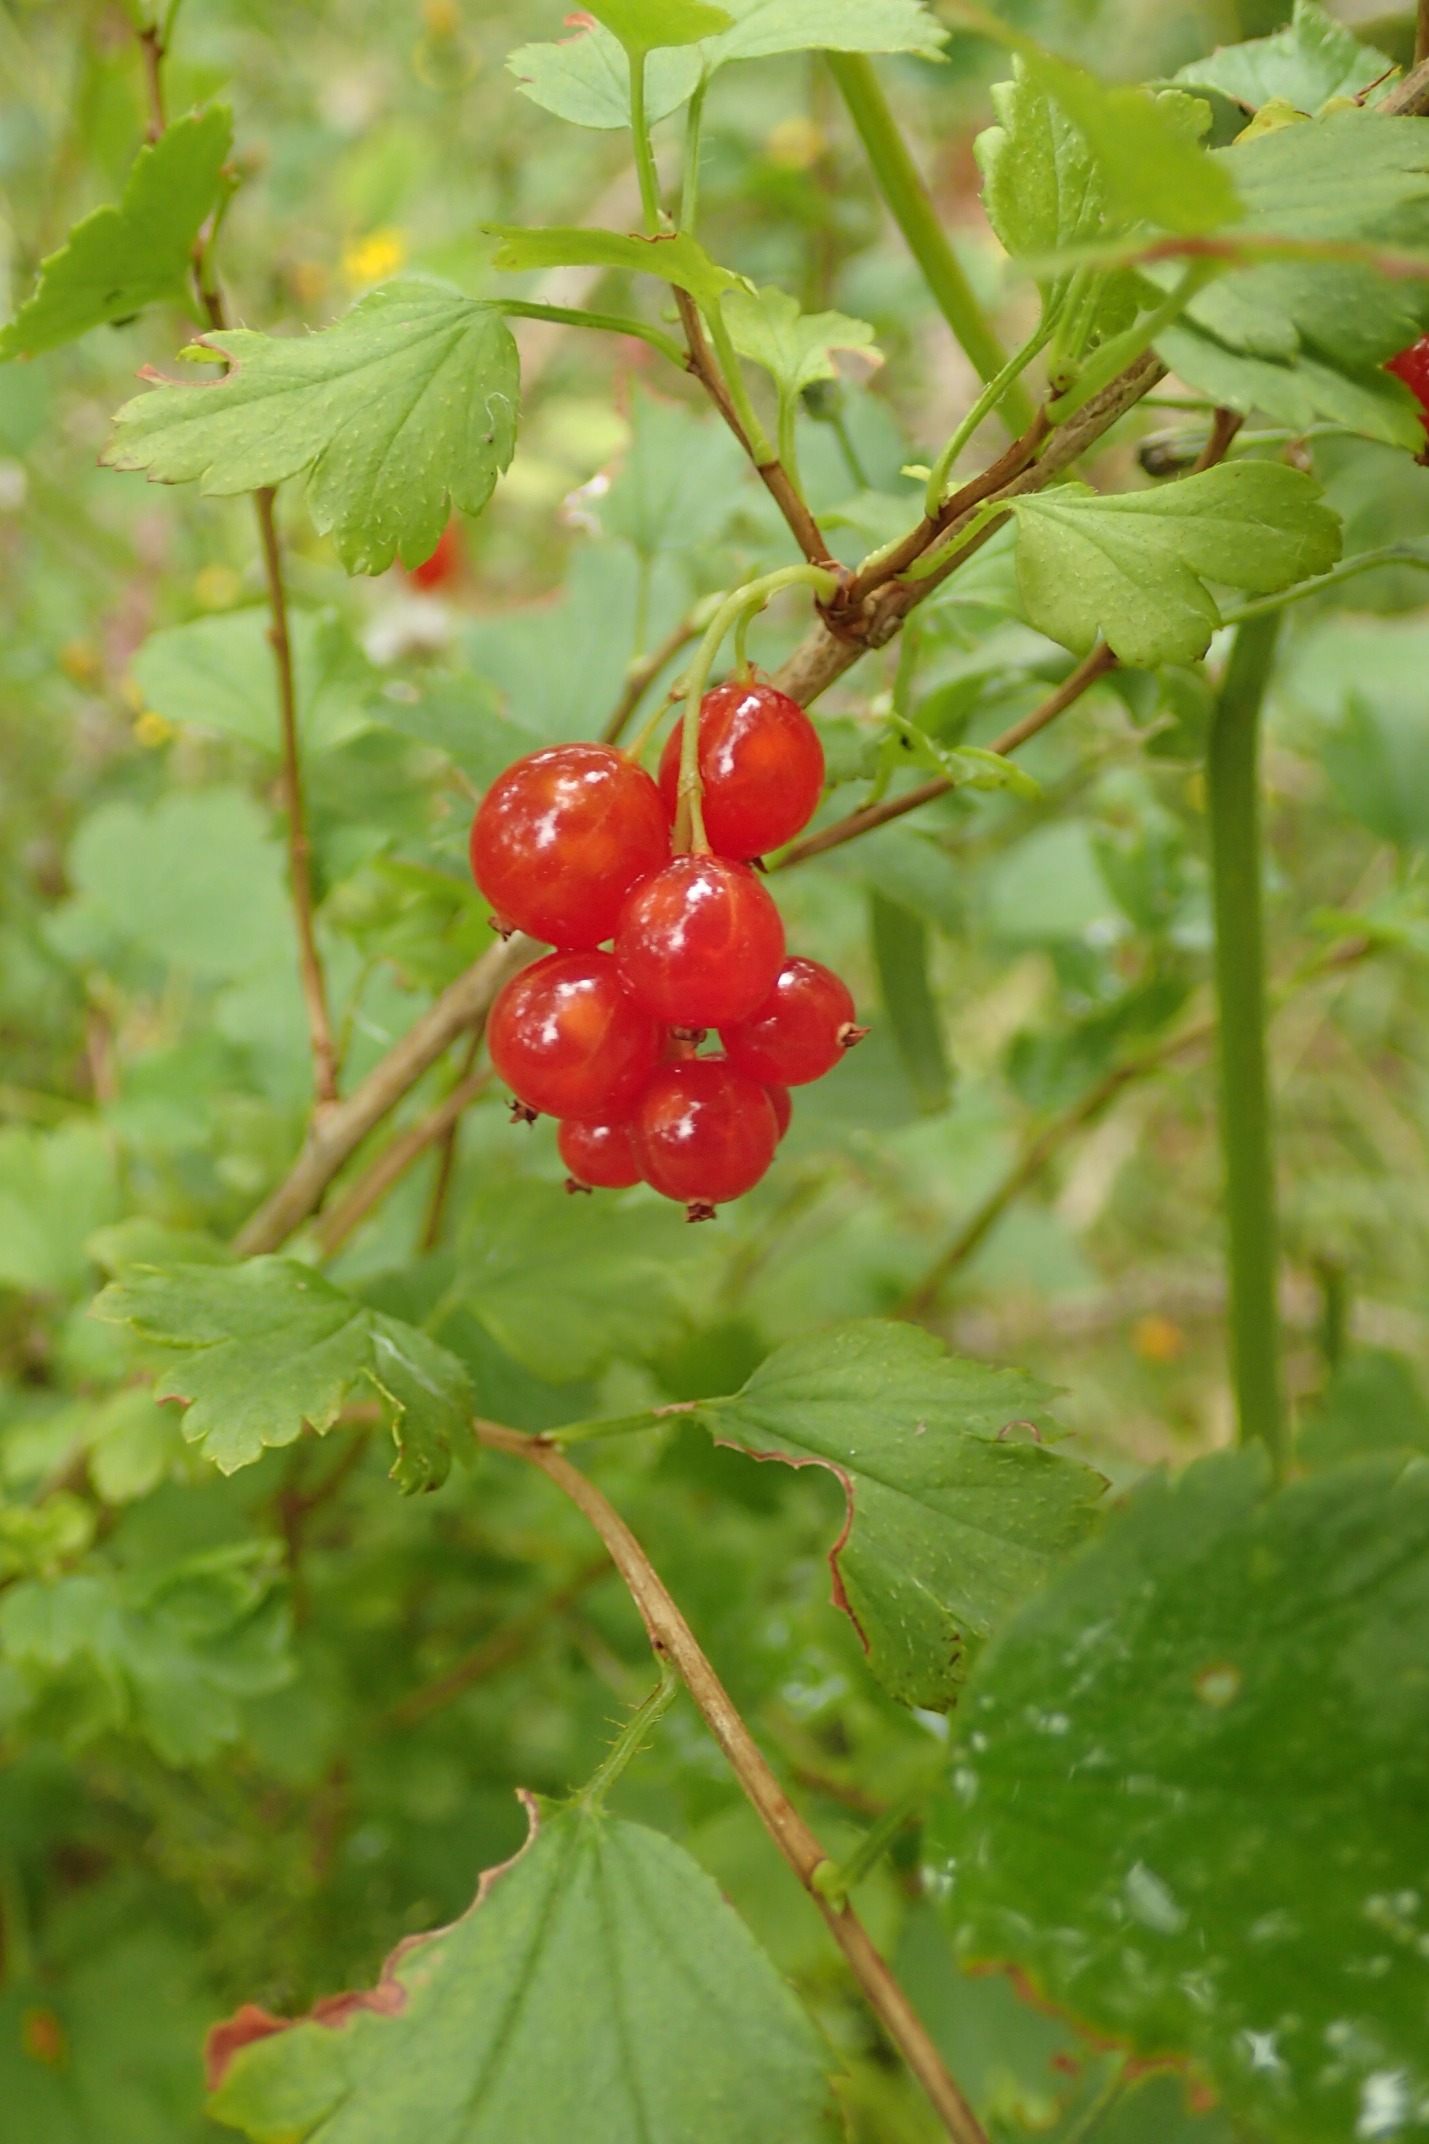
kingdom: Plantae
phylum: Tracheophyta
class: Magnoliopsida
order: Saxifragales
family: Grossulariaceae
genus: Ribes
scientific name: Ribes alpinum
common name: Fjeld-ribs
